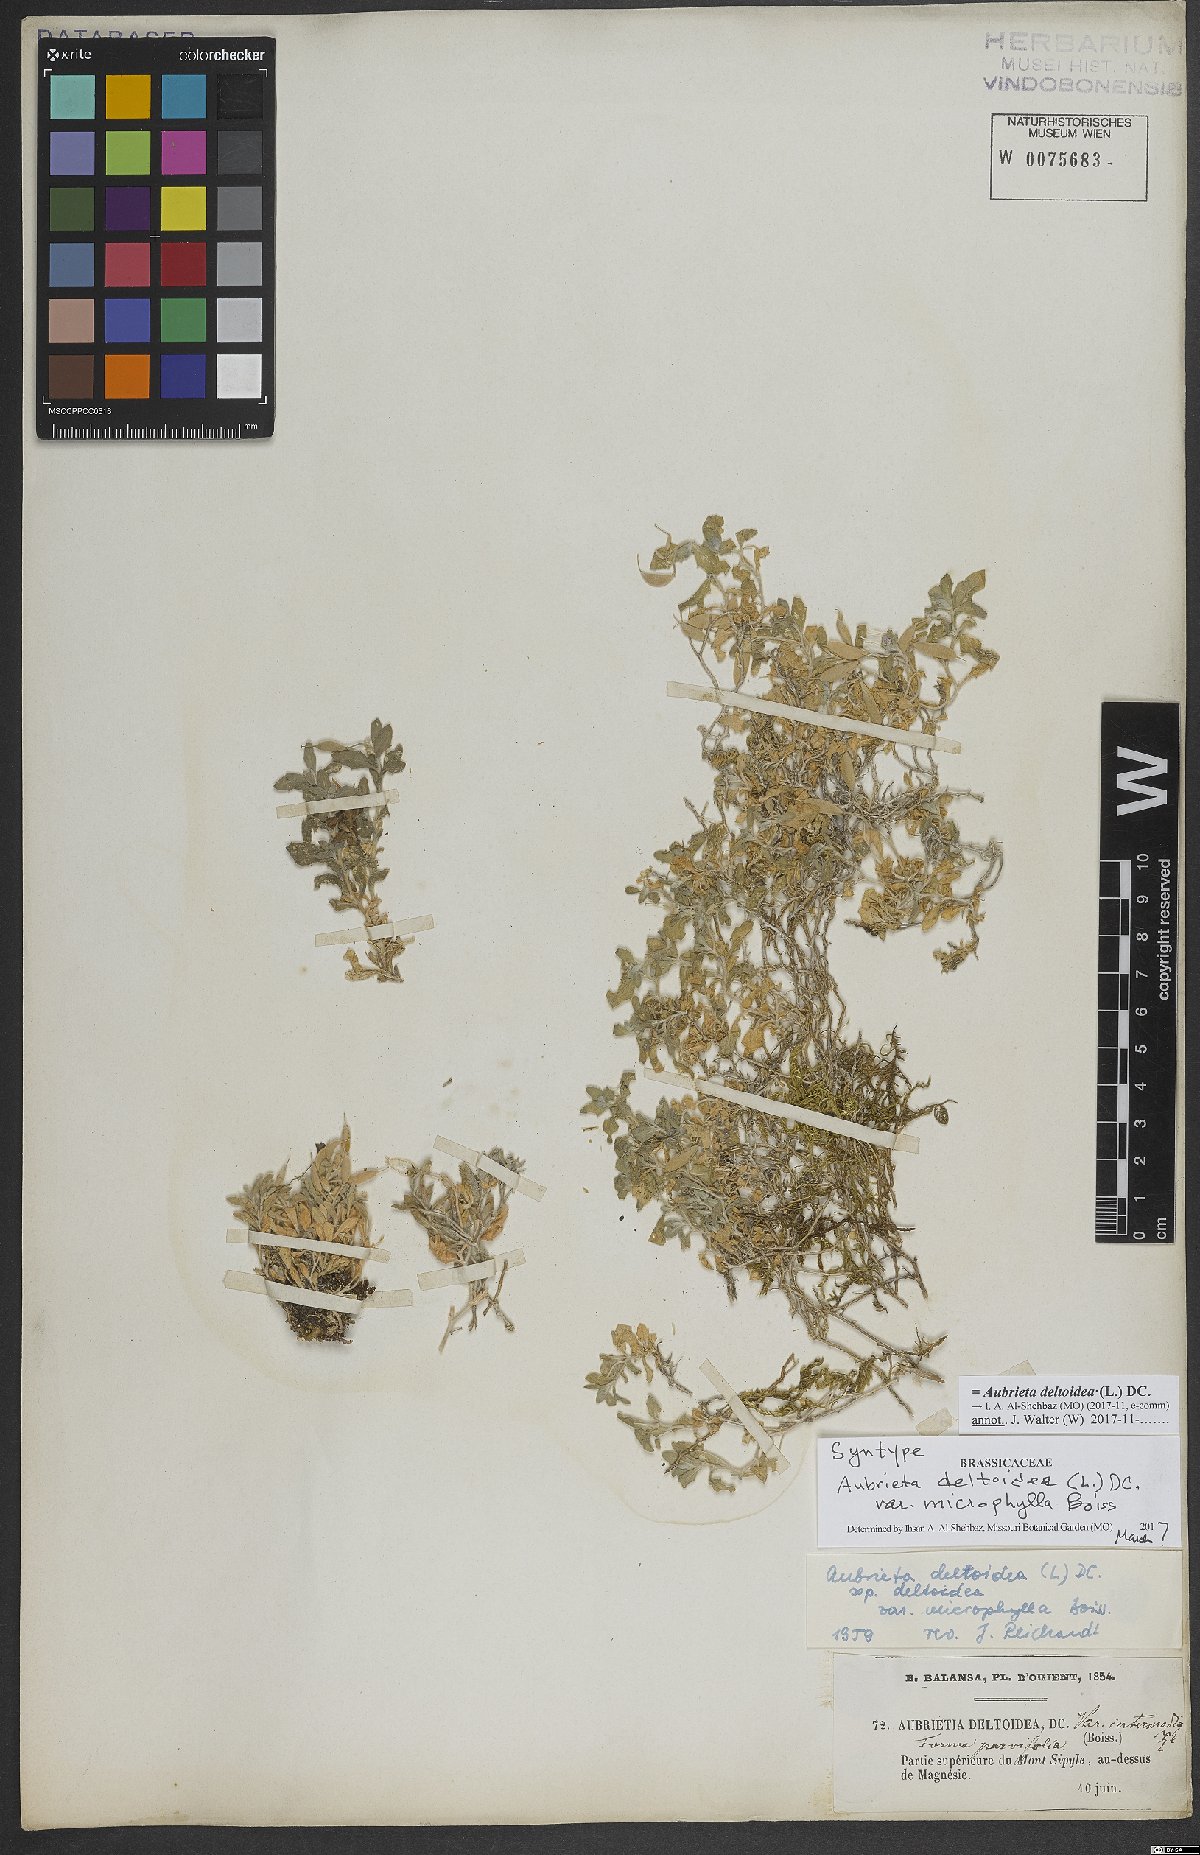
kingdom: Plantae
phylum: Tracheophyta
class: Magnoliopsida
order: Brassicales
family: Brassicaceae
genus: Aubrieta
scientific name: Aubrieta deltoidea
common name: Aubretia
